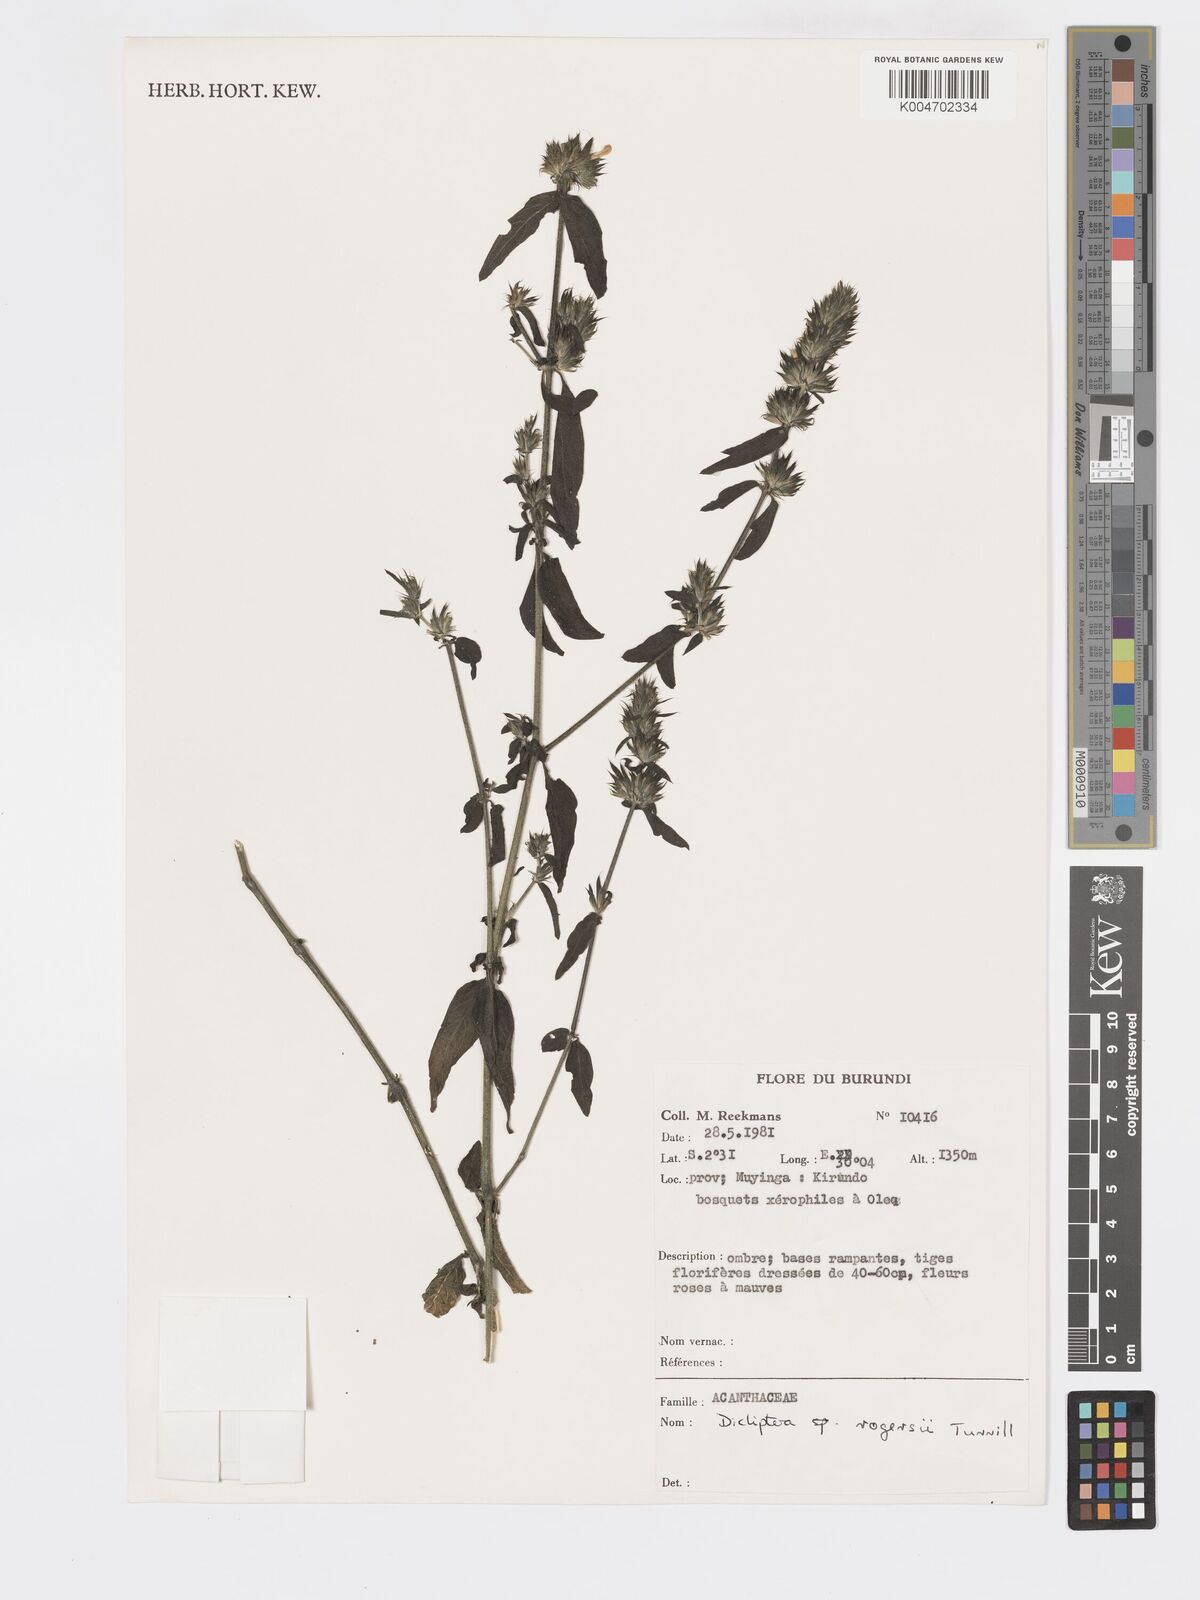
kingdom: Plantae
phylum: Tracheophyta
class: Magnoliopsida
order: Lamiales
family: Acanthaceae
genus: Dicliptera
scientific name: Dicliptera carvalhoi
